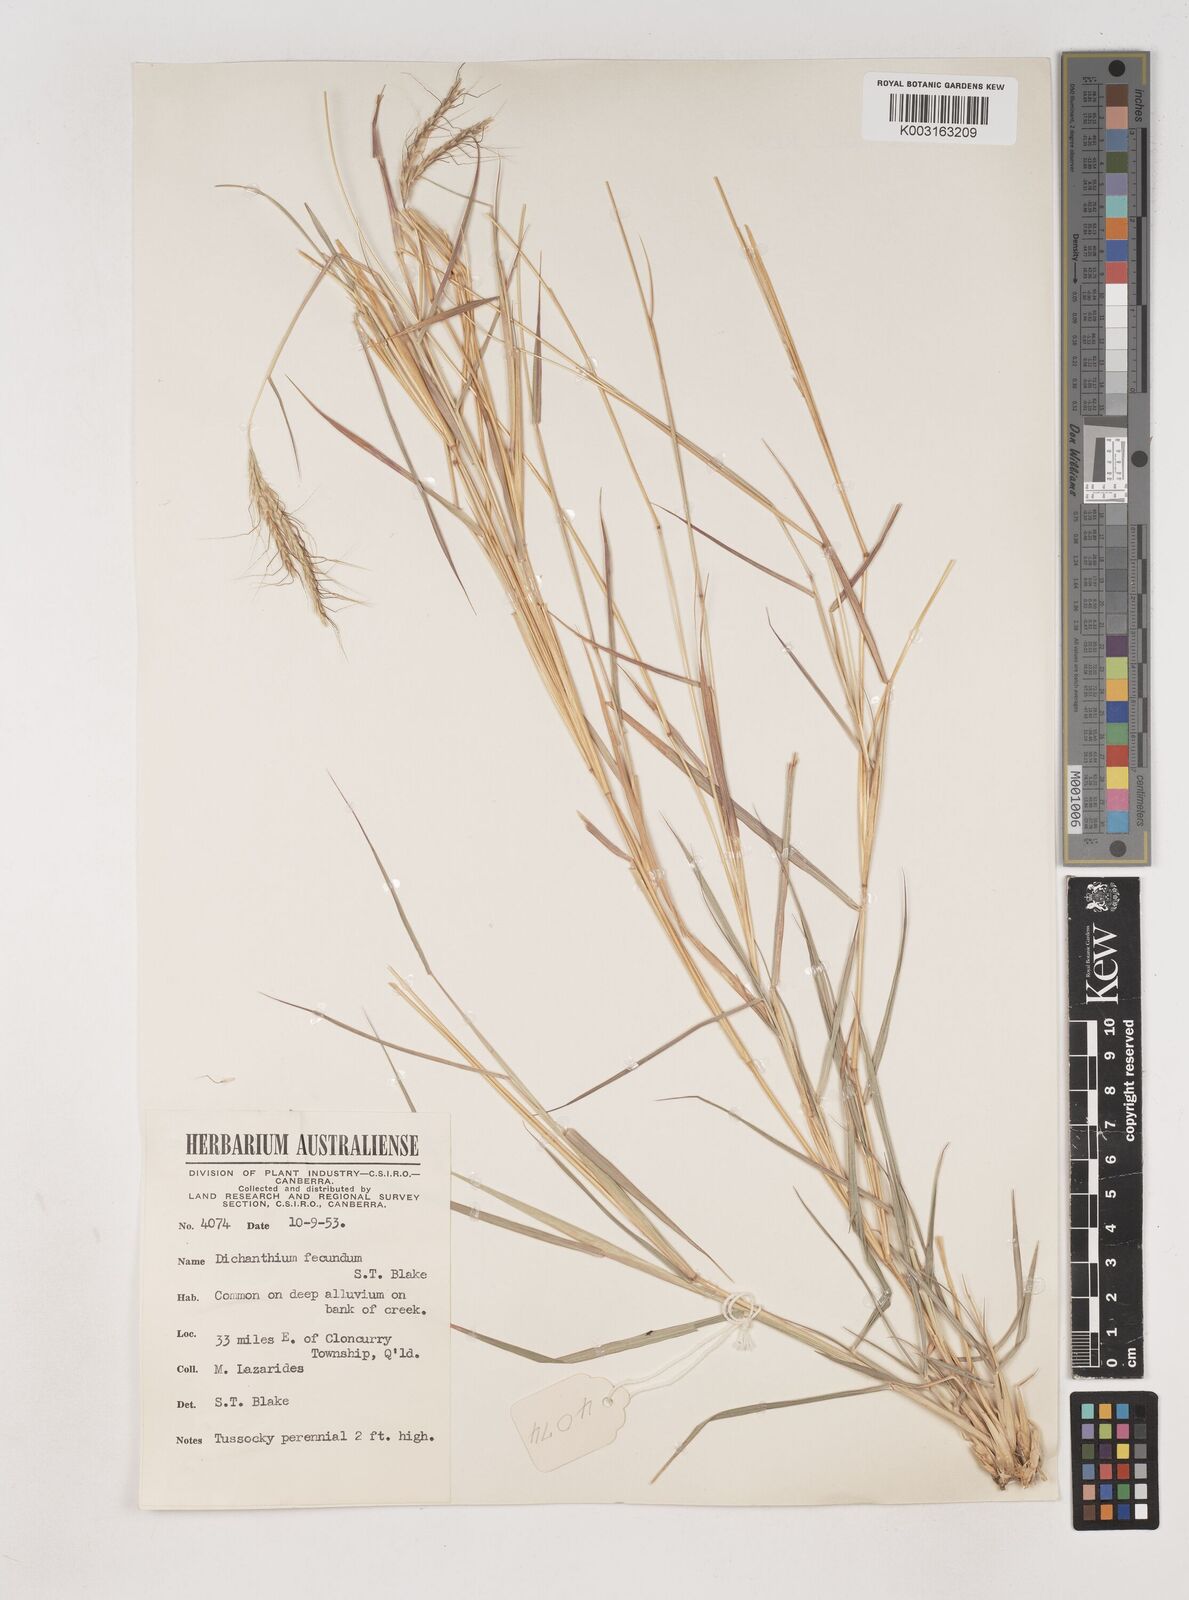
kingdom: Plantae
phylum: Tracheophyta
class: Liliopsida
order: Poales
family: Poaceae
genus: Dichanthium
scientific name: Dichanthium fecundum
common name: Bundle-bundle
